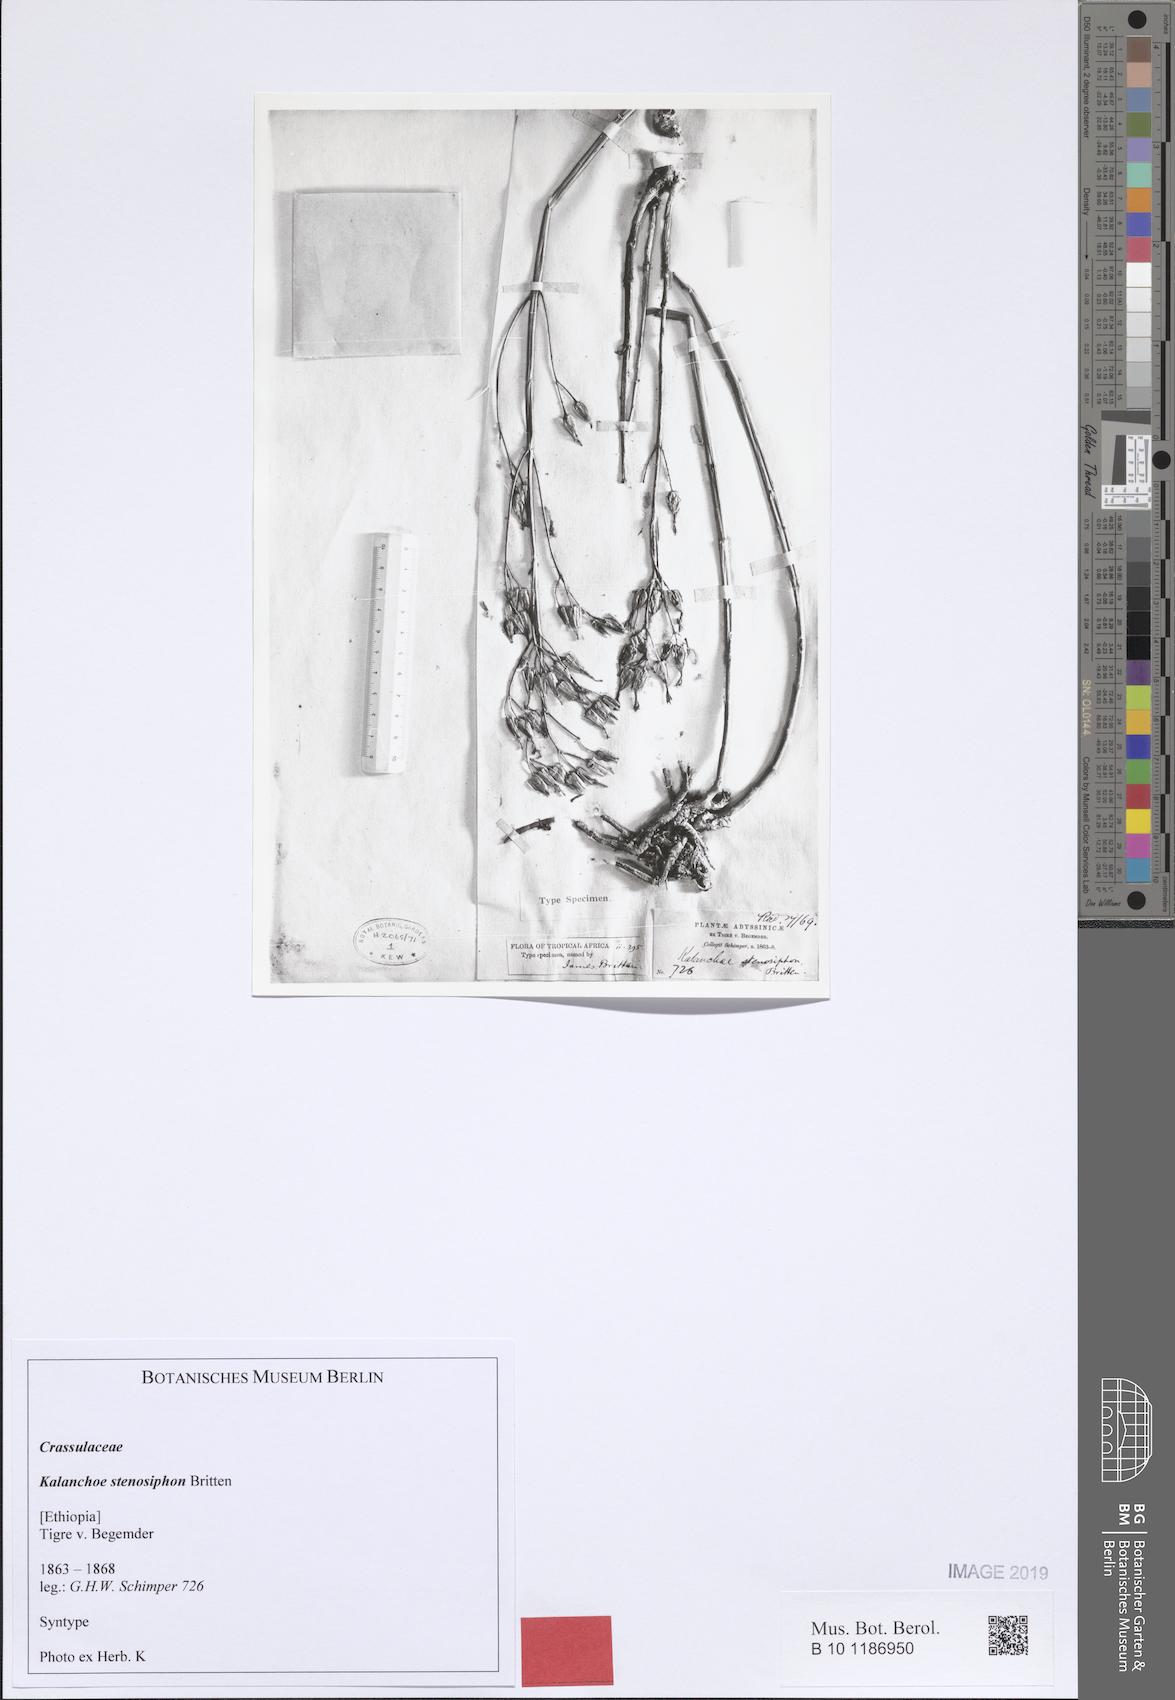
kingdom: Plantae
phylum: Tracheophyta
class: Magnoliopsida
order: Saxifragales
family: Crassulaceae
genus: Kalanchoe
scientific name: Kalanchoe stenosiphon
